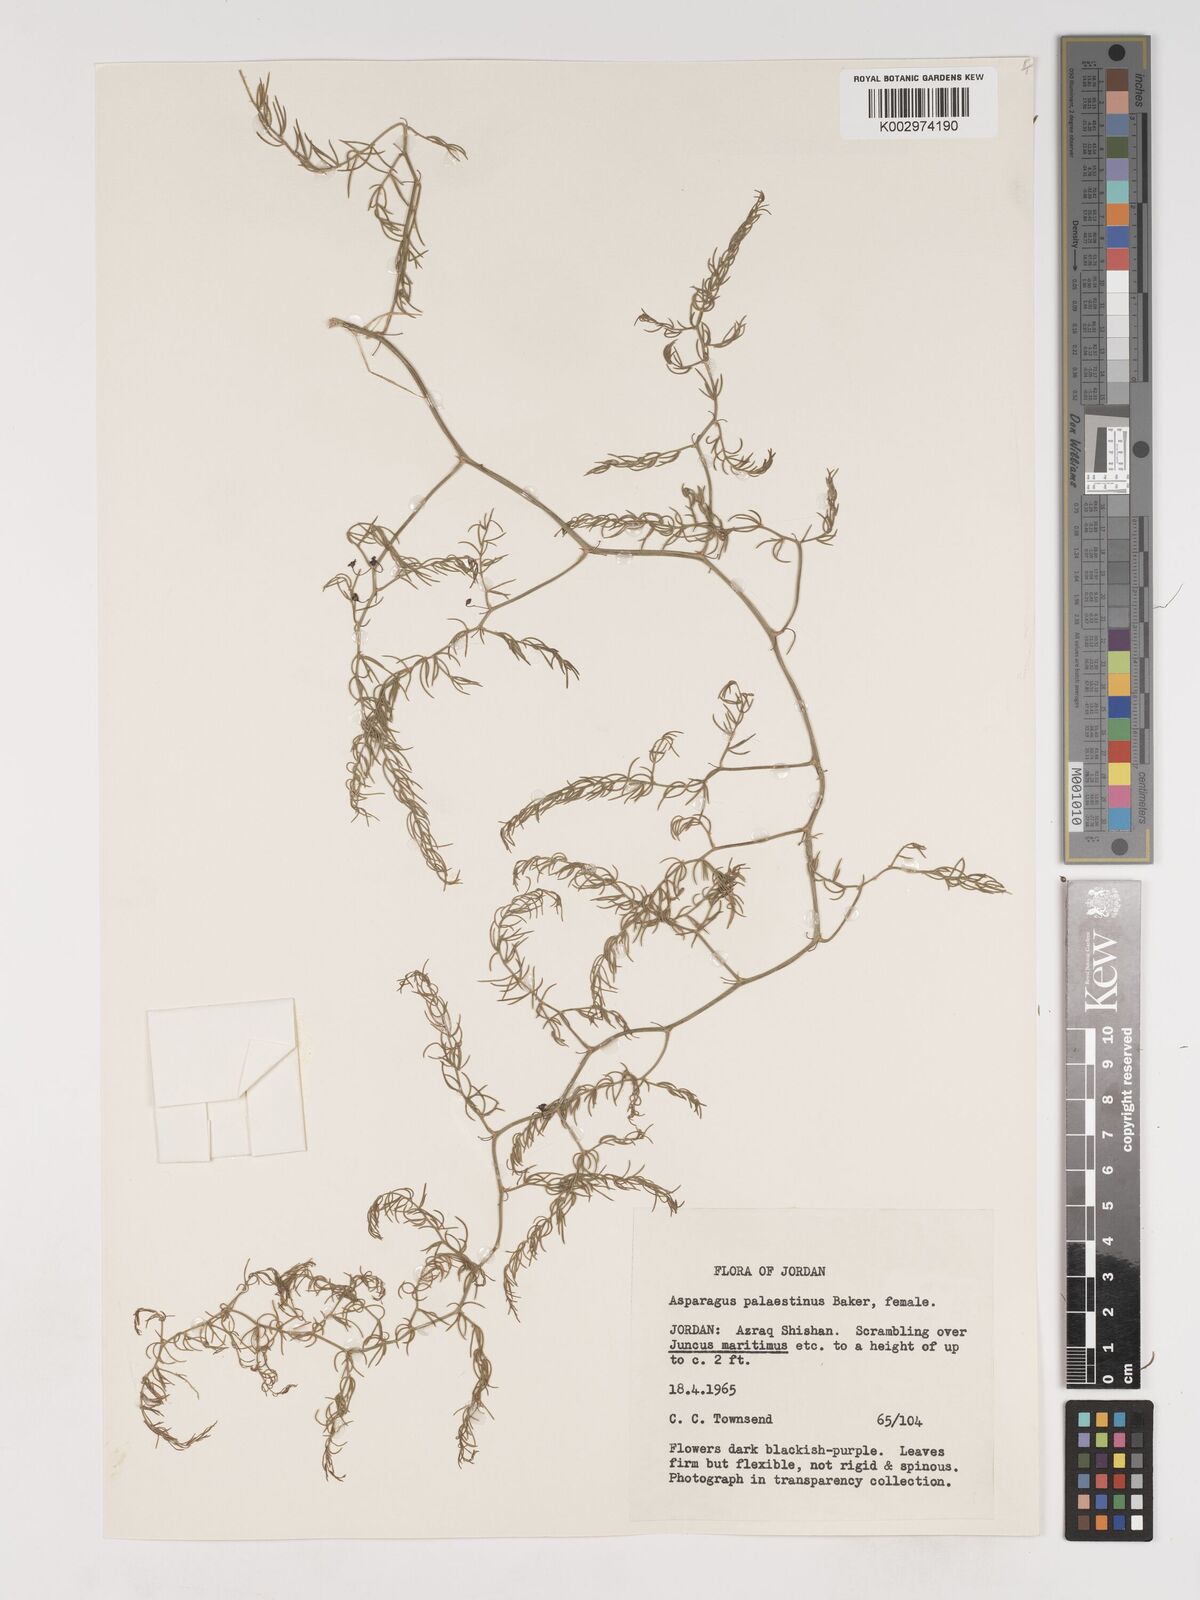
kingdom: Plantae
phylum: Tracheophyta
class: Liliopsida
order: Asparagales
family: Asparagaceae
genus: Asparagus
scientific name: Asparagus palaestinus
